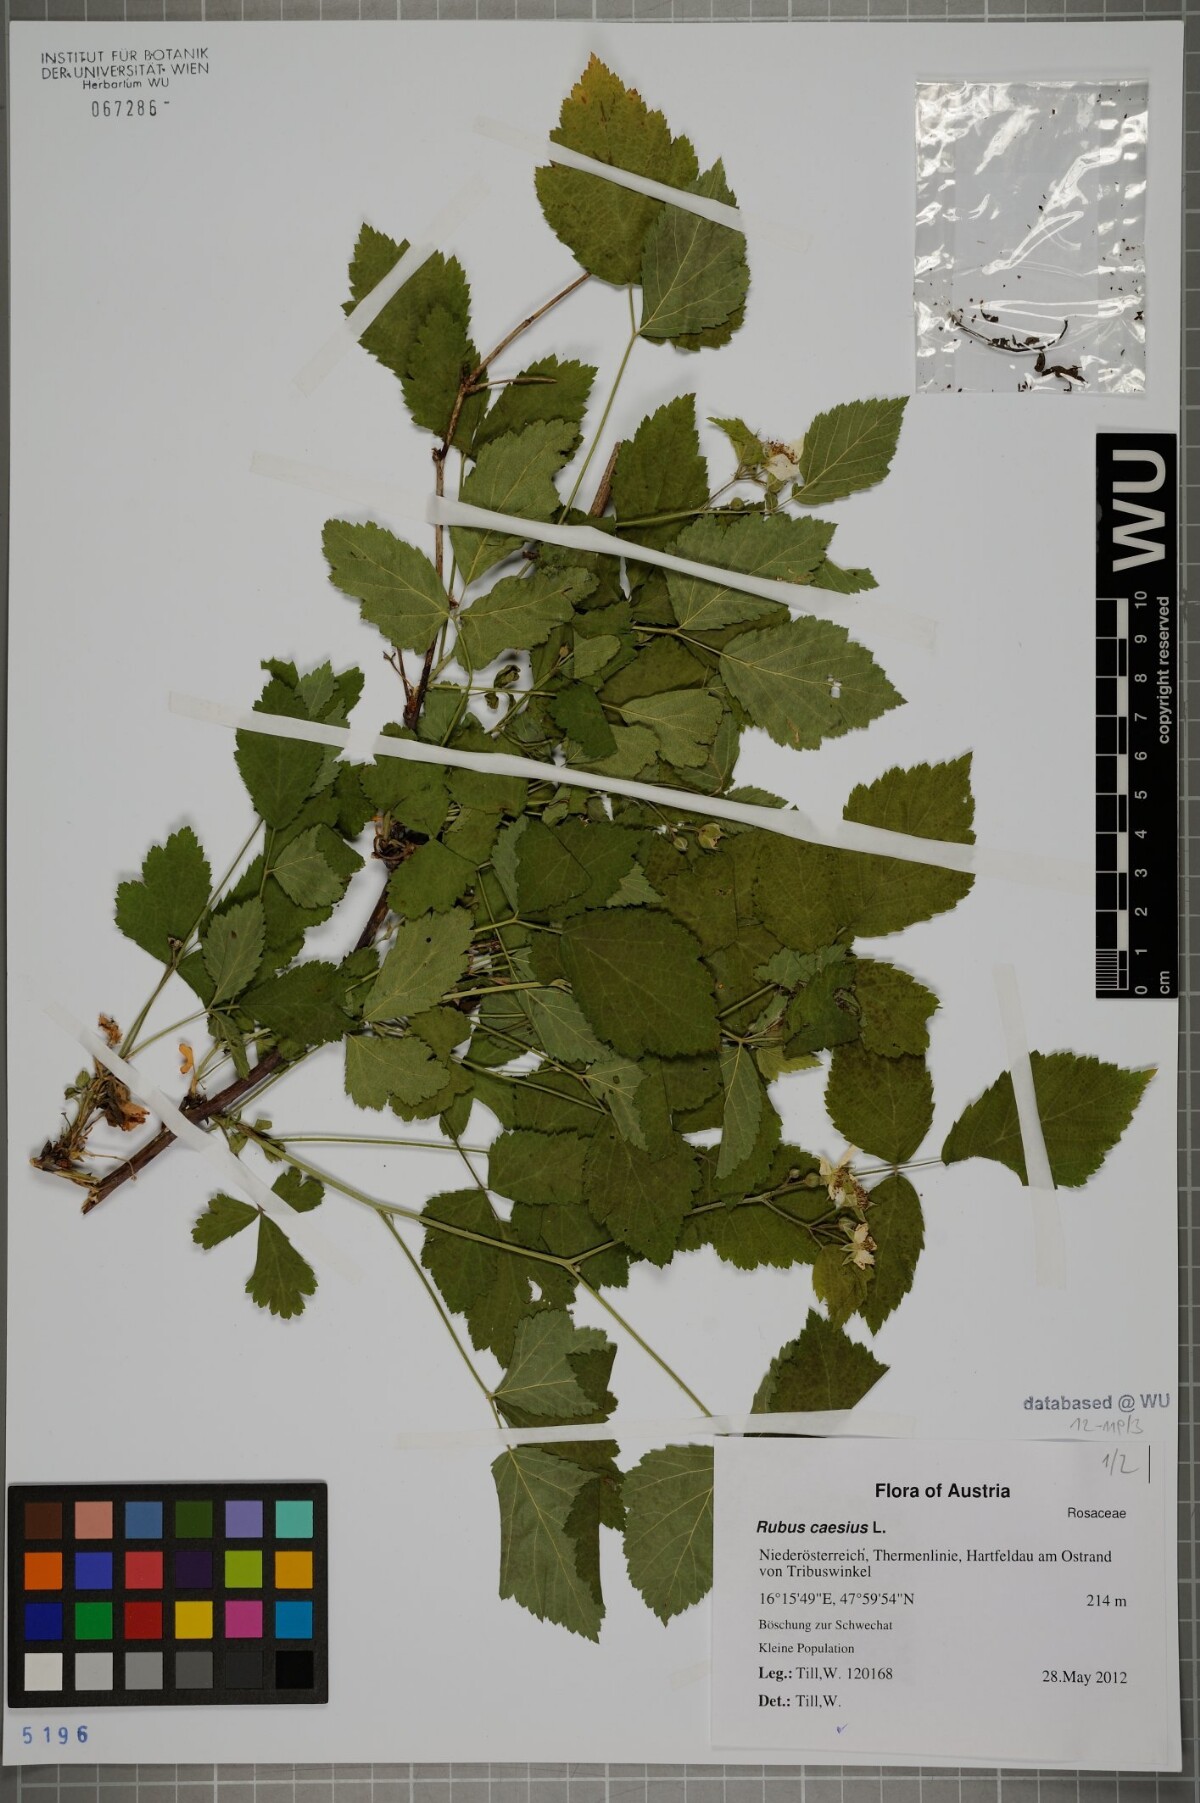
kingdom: Plantae
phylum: Tracheophyta
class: Magnoliopsida
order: Rosales
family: Rosaceae
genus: Rubus
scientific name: Rubus caesius
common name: Dewberry
